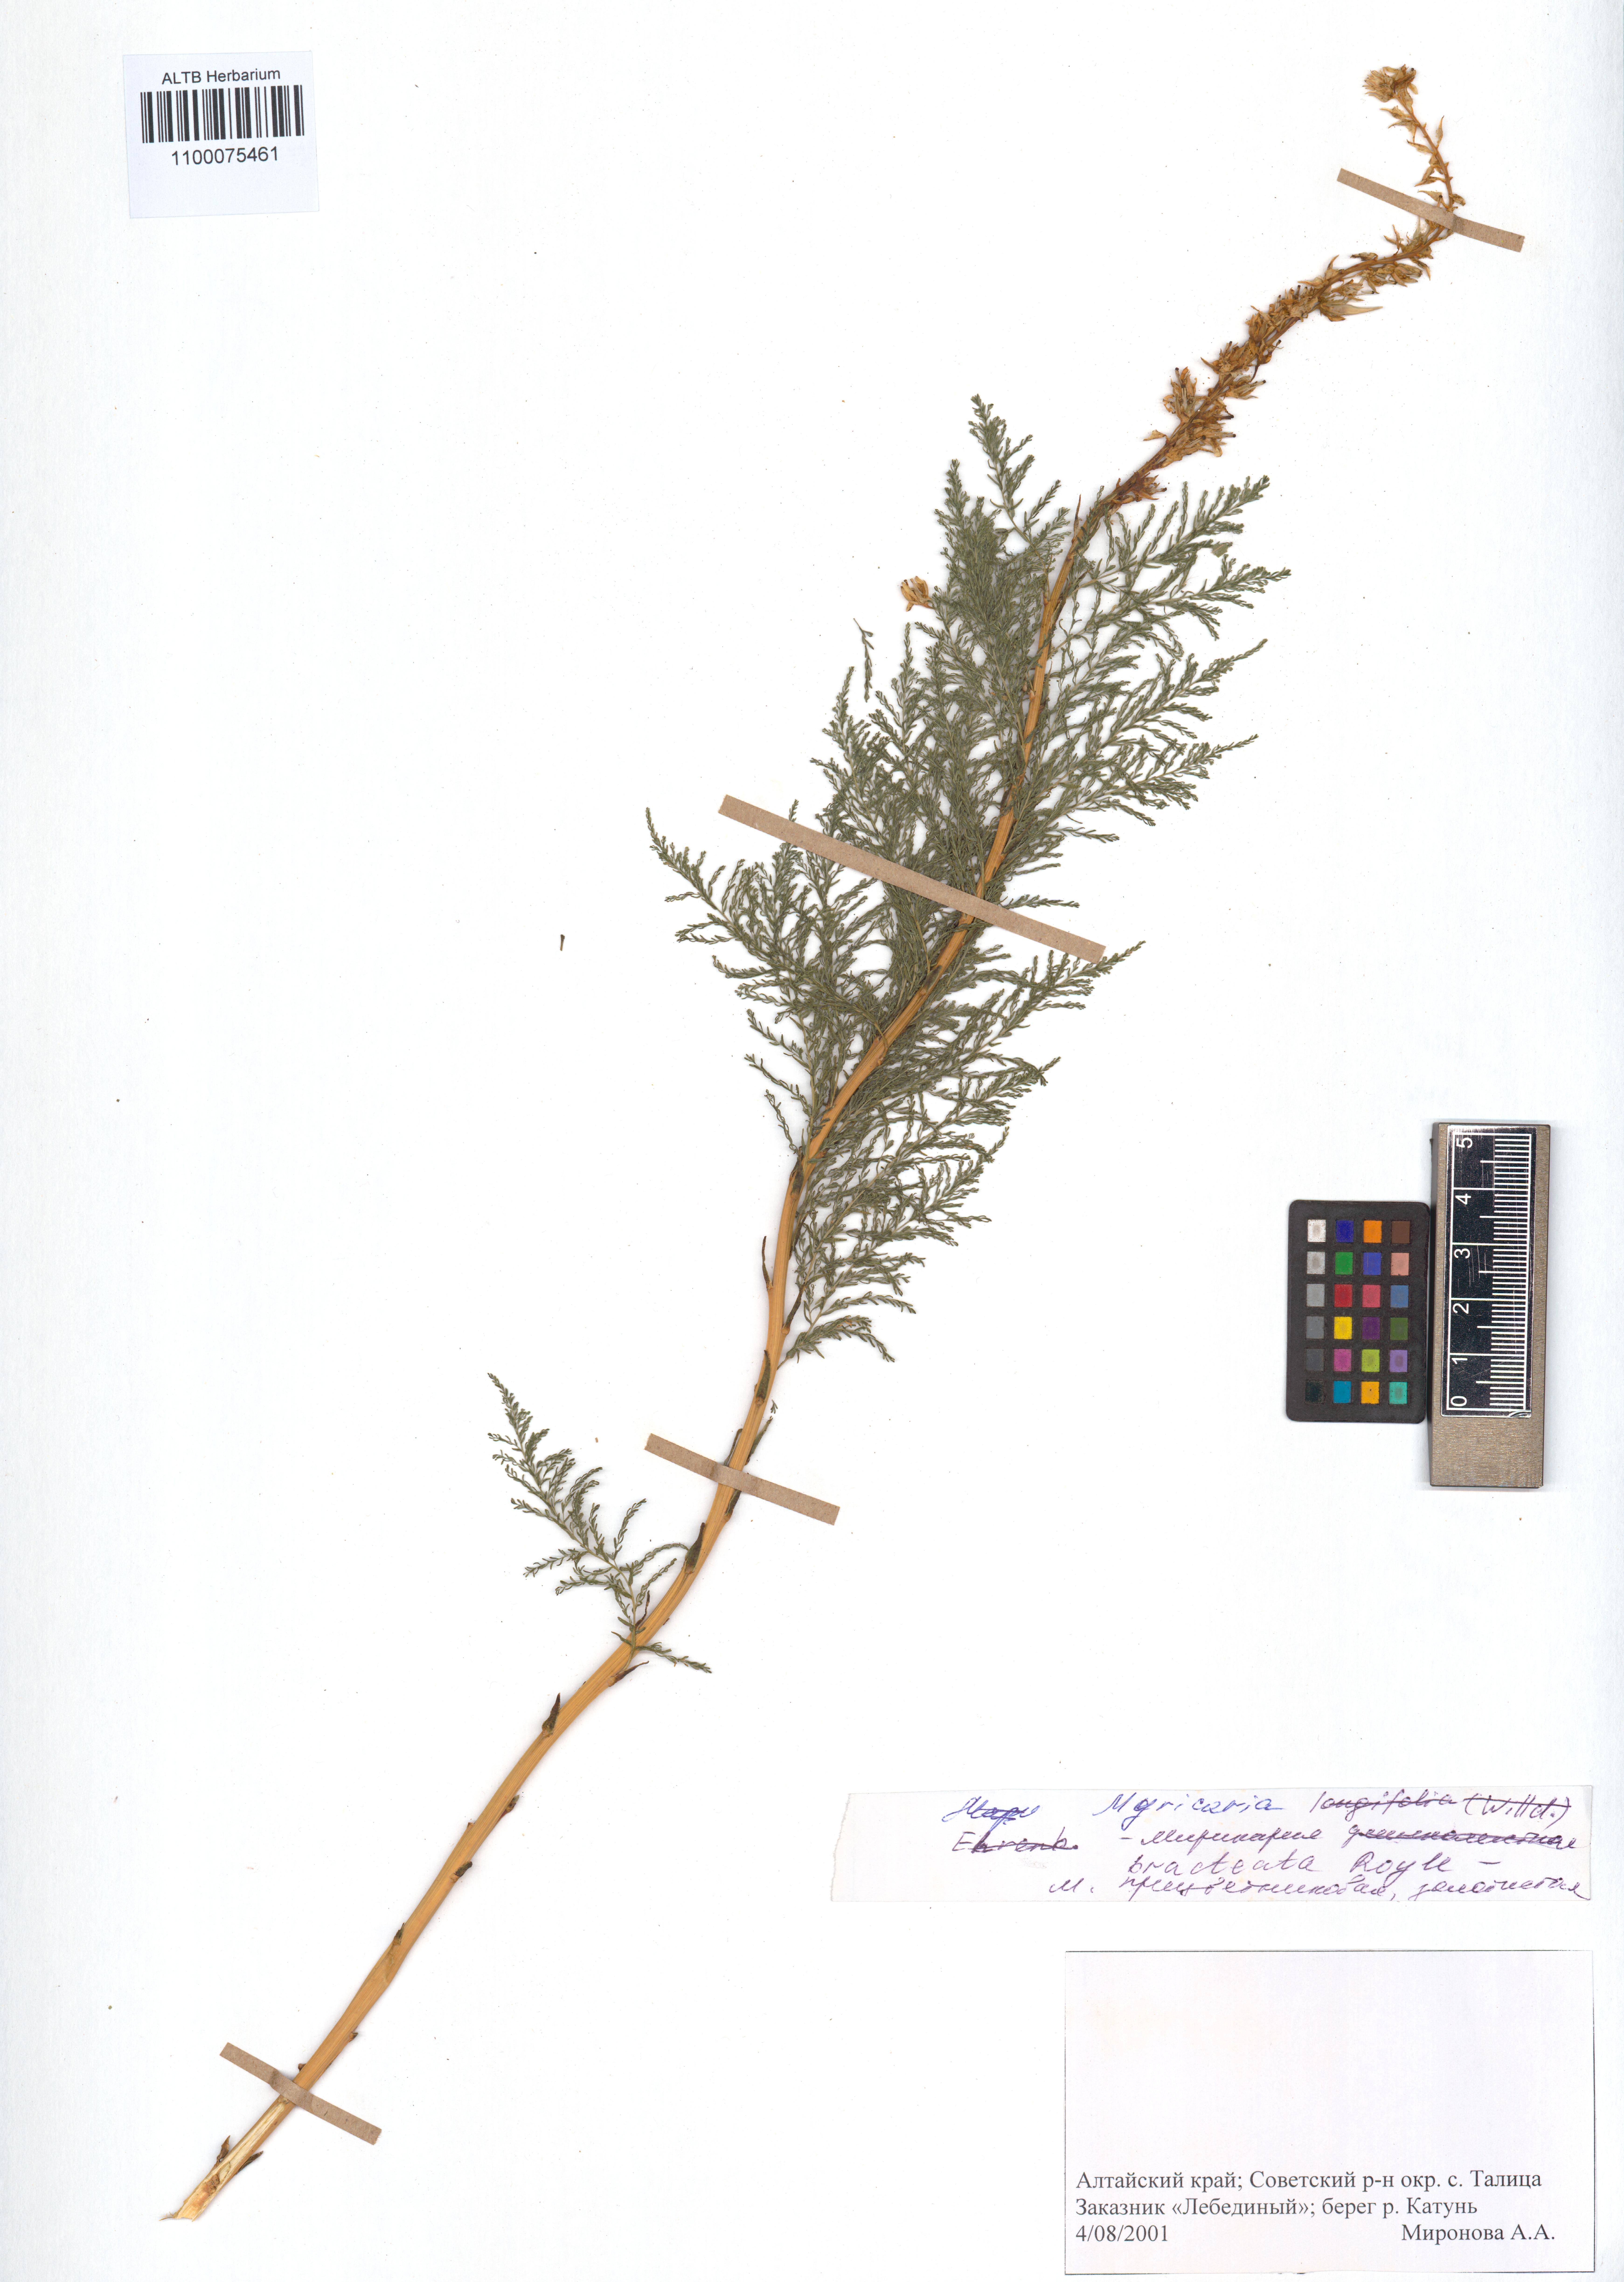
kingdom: Plantae
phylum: Tracheophyta
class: Magnoliopsida
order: Caryophyllales
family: Tamaricaceae
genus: Myricaria
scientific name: Myricaria bracteata
